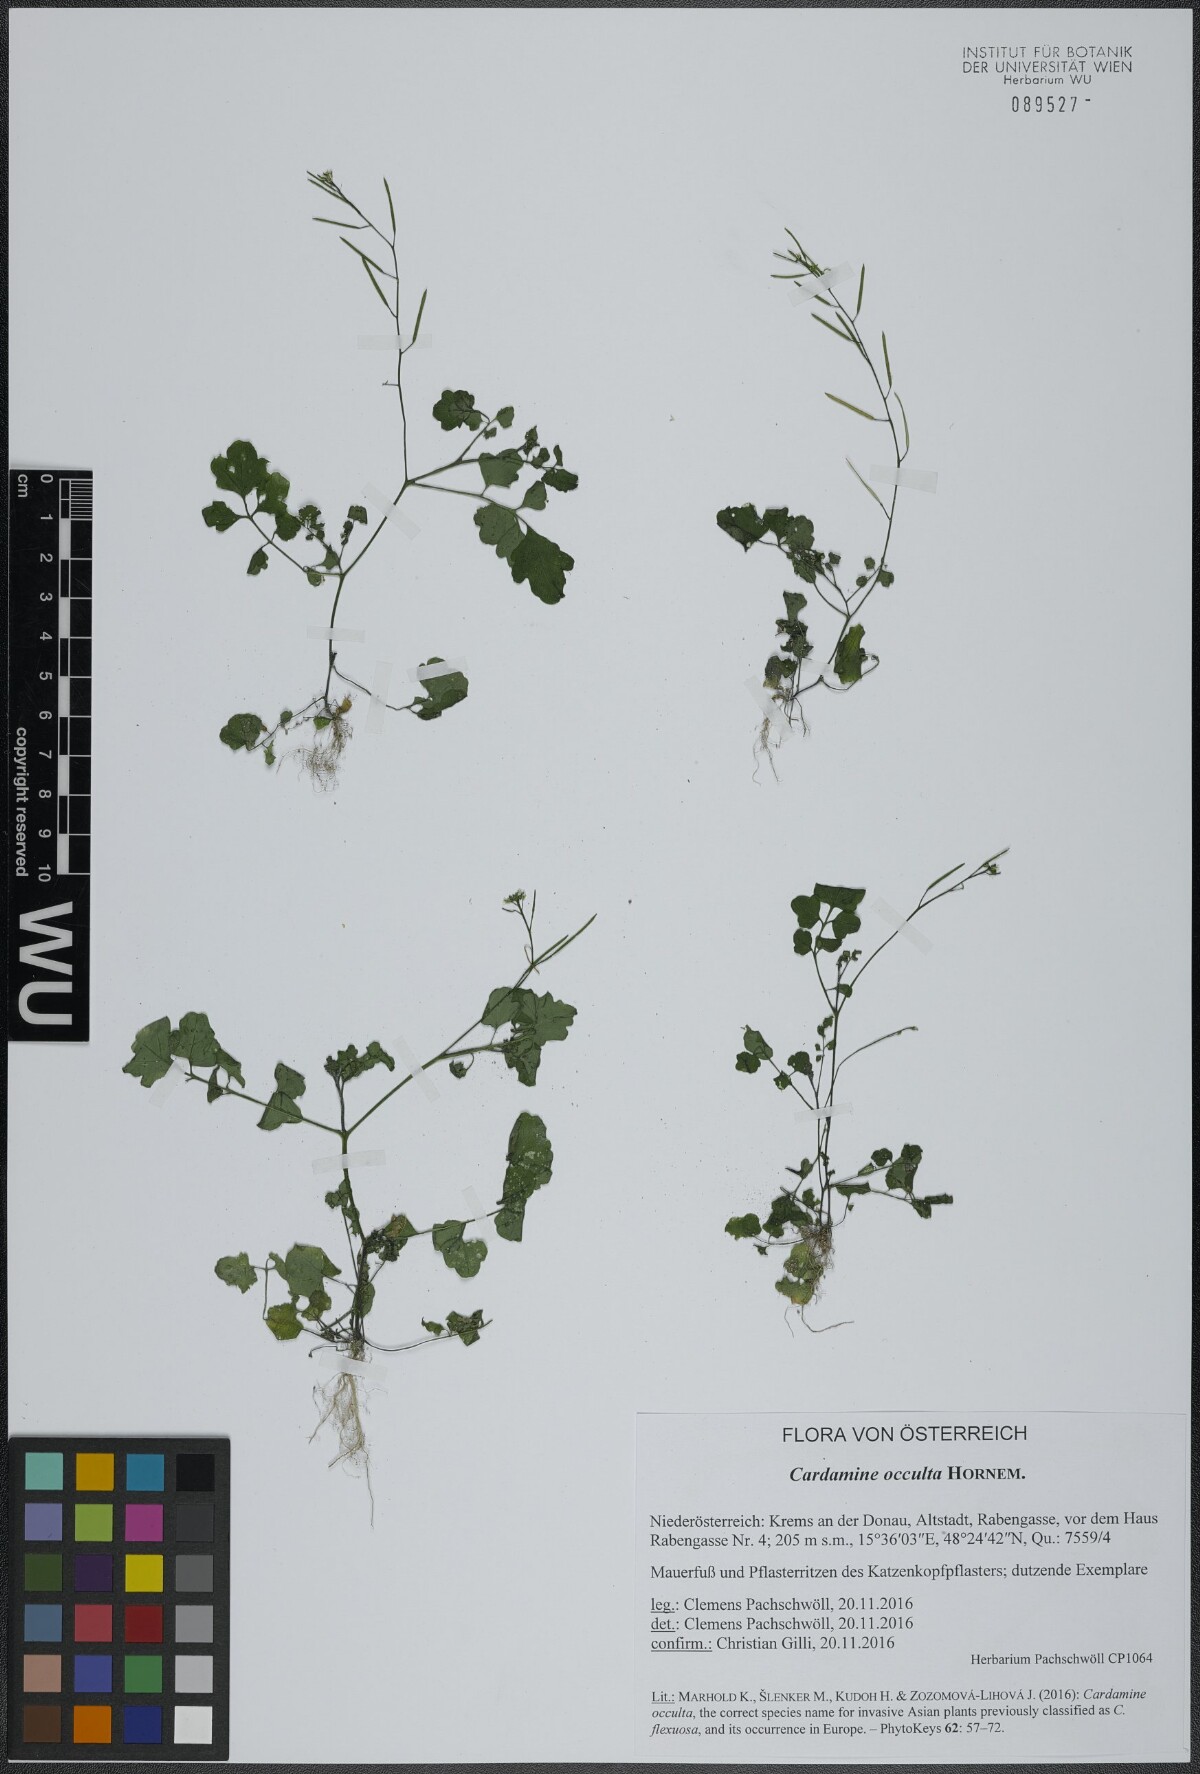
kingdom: Plantae
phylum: Tracheophyta
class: Magnoliopsida
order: Brassicales
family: Brassicaceae
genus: Cardamine
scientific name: Cardamine occulta
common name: Asian wavy bittercress
